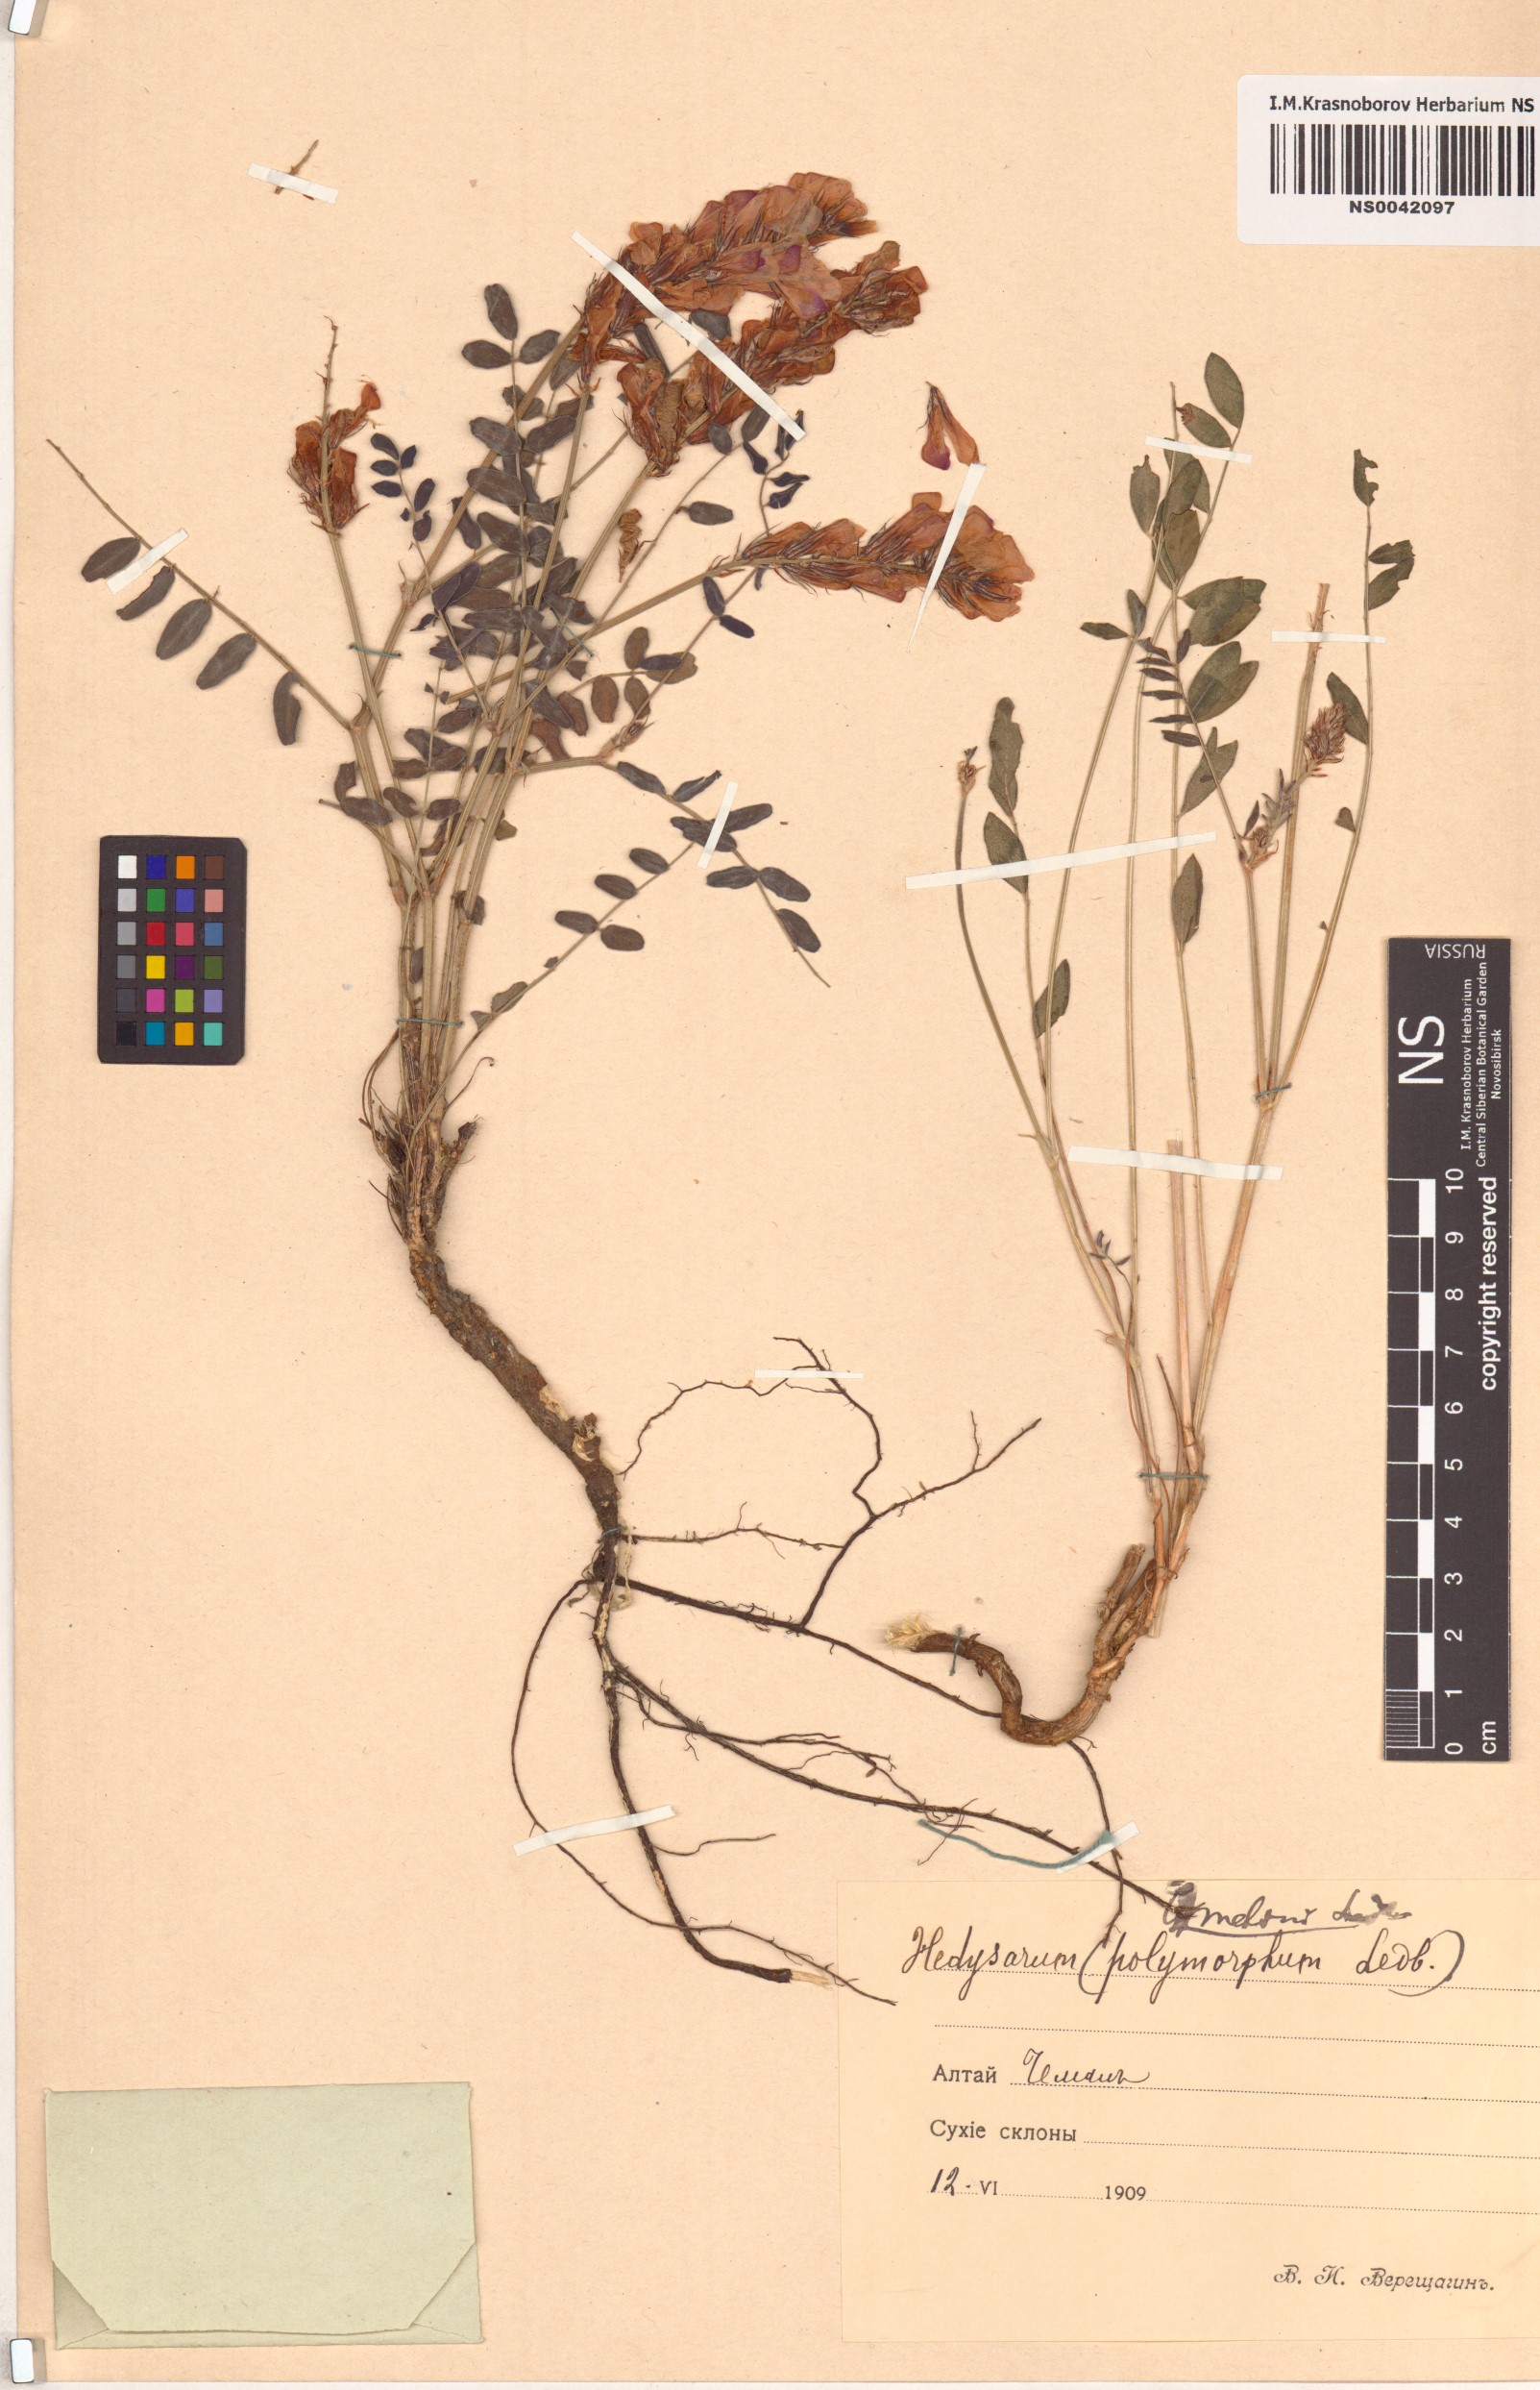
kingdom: Plantae
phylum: Tracheophyta
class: Magnoliopsida
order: Fabales
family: Fabaceae
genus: Hedysarum
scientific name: Hedysarum gmelinii
